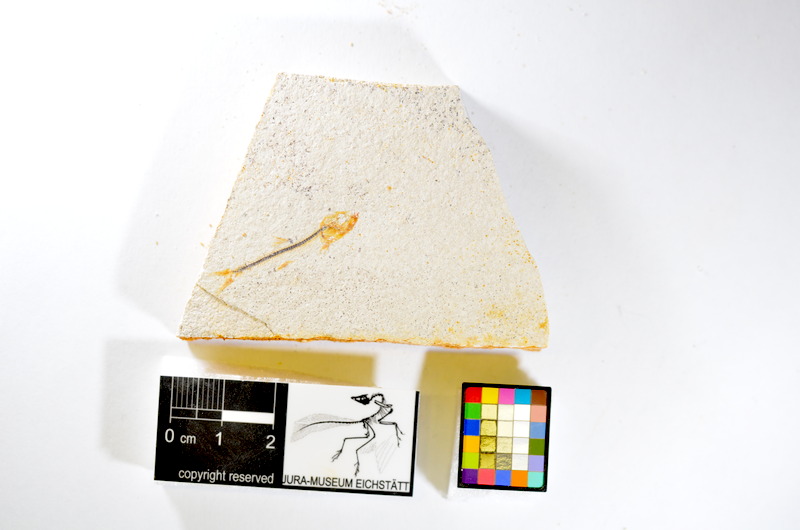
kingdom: Animalia
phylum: Chordata
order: Salmoniformes
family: Orthogonikleithridae
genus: Orthogonikleithrus
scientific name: Orthogonikleithrus hoelli
